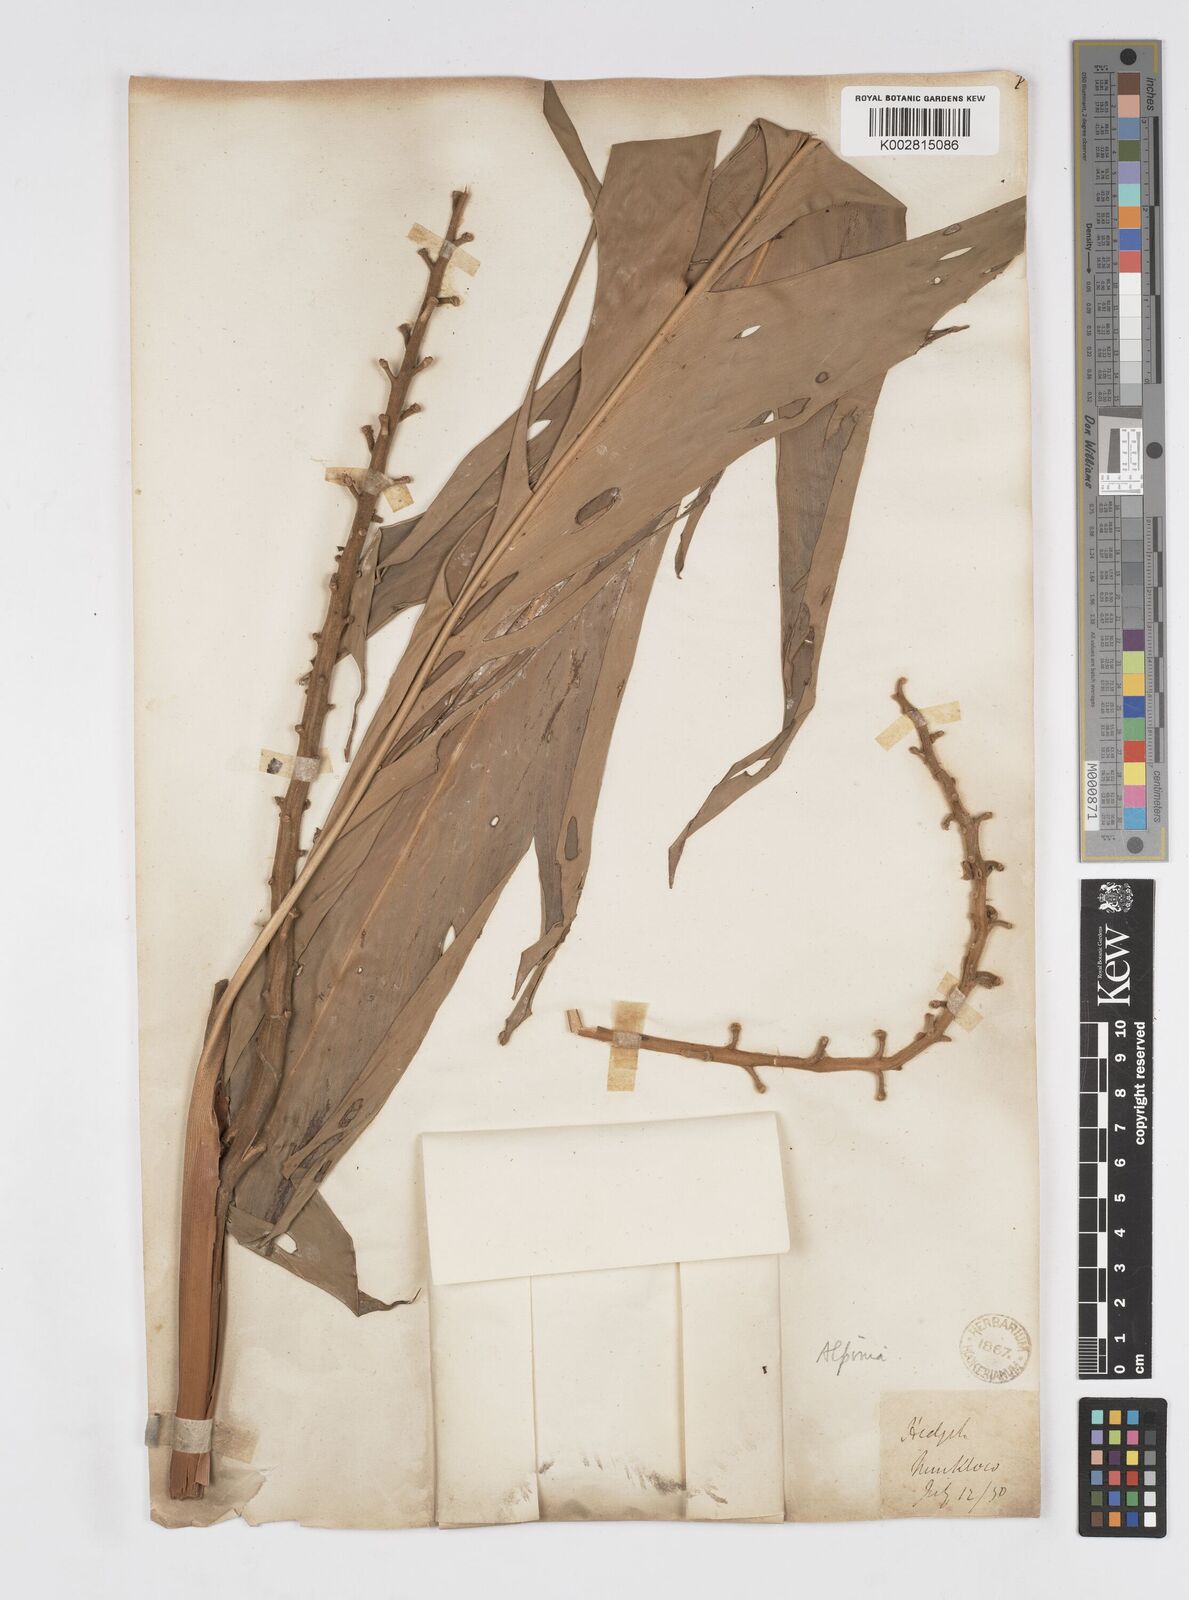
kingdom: Plantae
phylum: Tracheophyta
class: Liliopsida
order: Zingiberales
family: Zingiberaceae
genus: Alpinia
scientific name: Alpinia malaccensis
